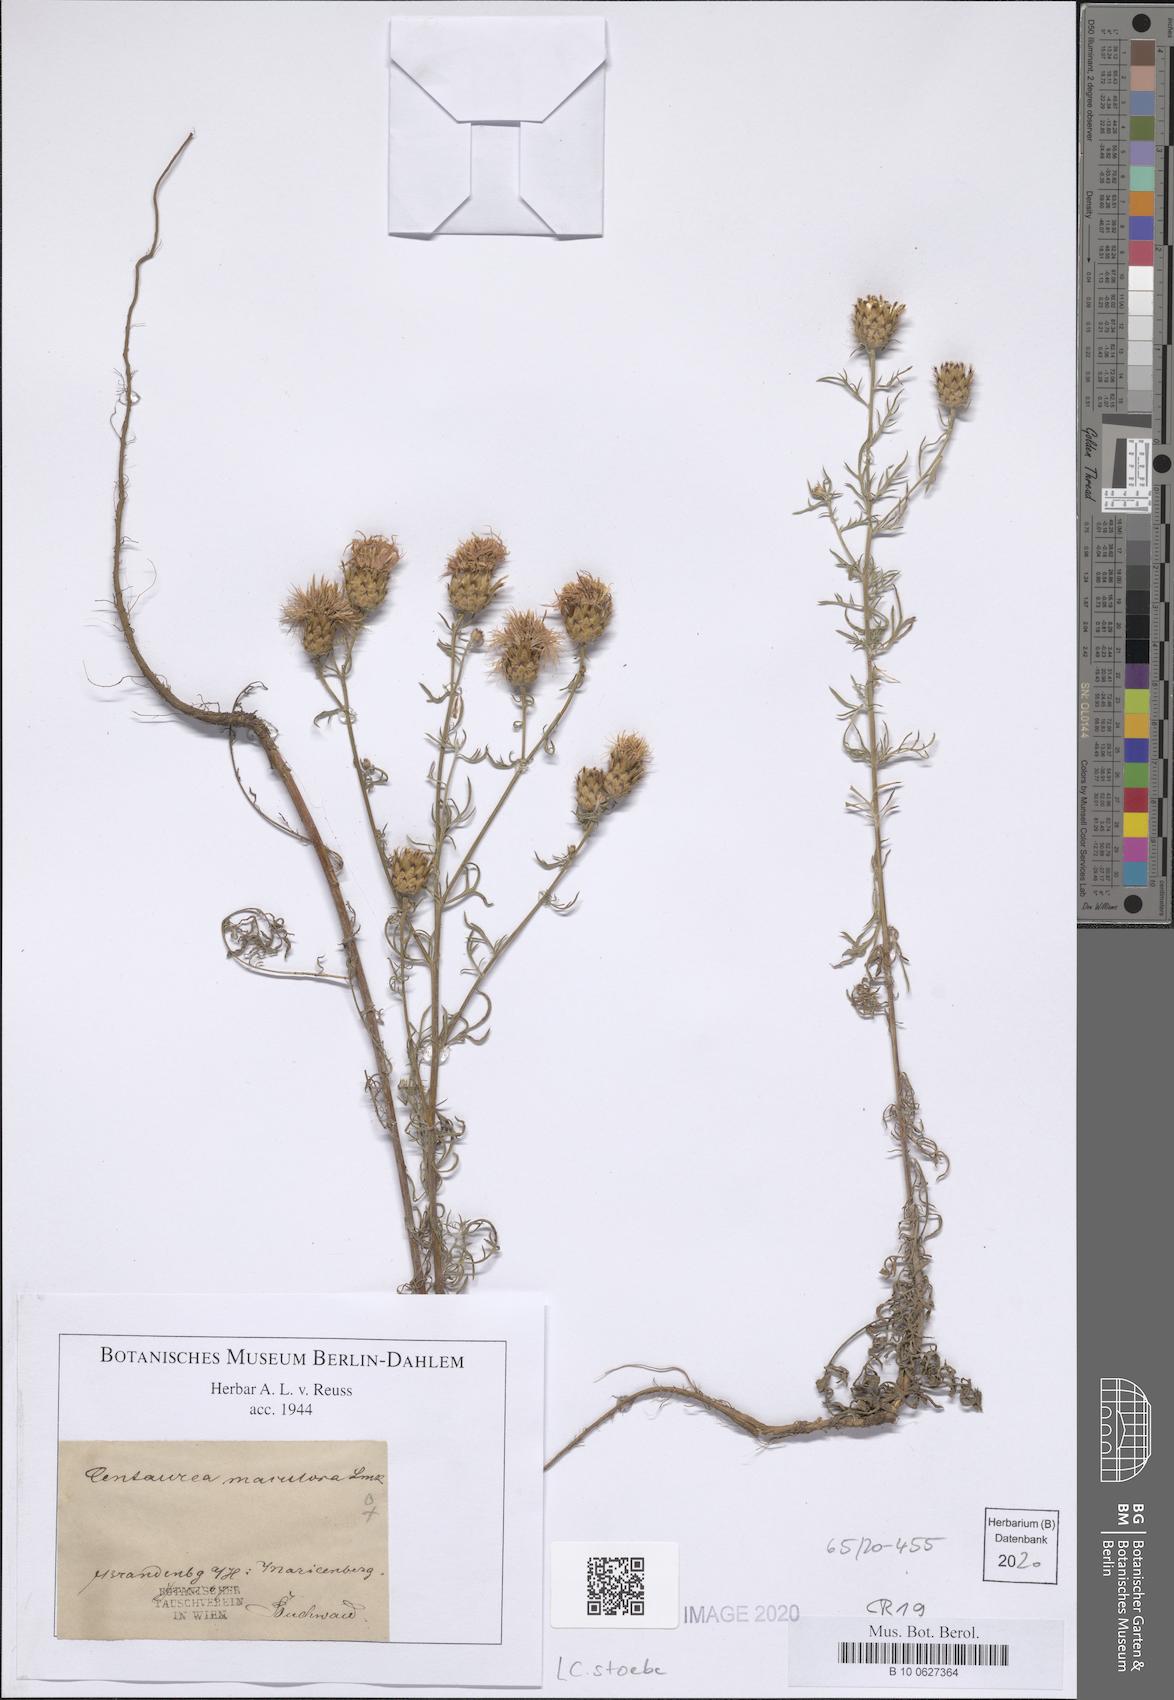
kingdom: Plantae
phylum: Tracheophyta
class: Magnoliopsida
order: Asterales
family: Asteraceae
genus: Centaurea
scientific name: Centaurea stoebe
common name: Spotted knapweed
